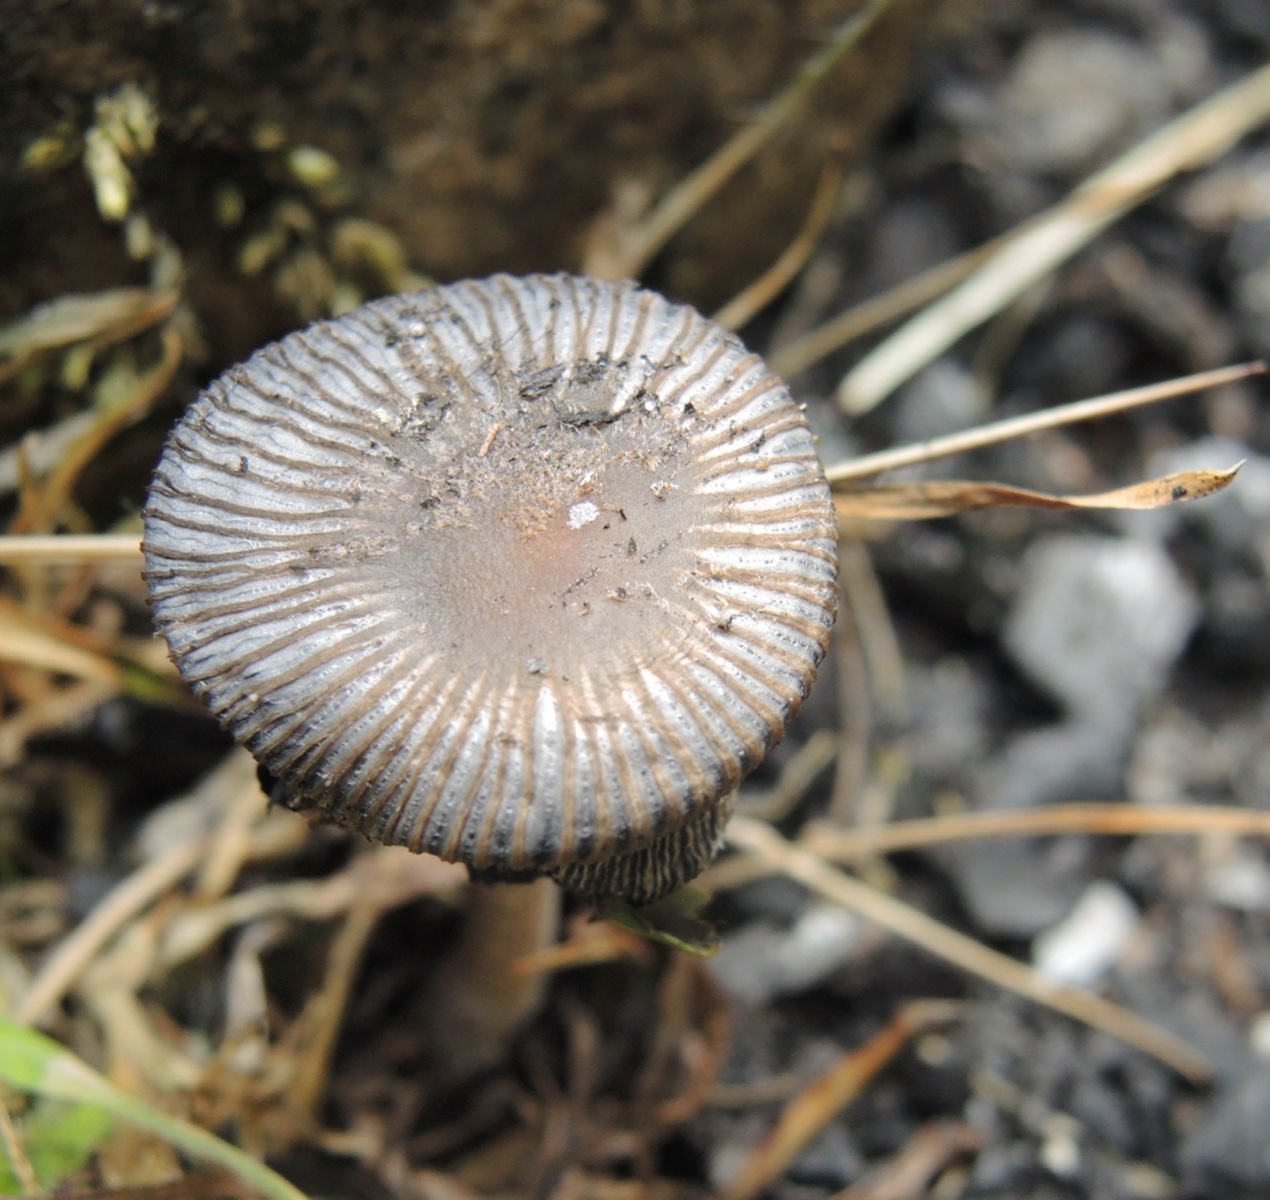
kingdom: Fungi
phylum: Basidiomycota
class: Agaricomycetes
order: Agaricales
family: Psathyrellaceae
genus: Coprinopsis
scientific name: Coprinopsis jonesii
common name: spættet blækhat
